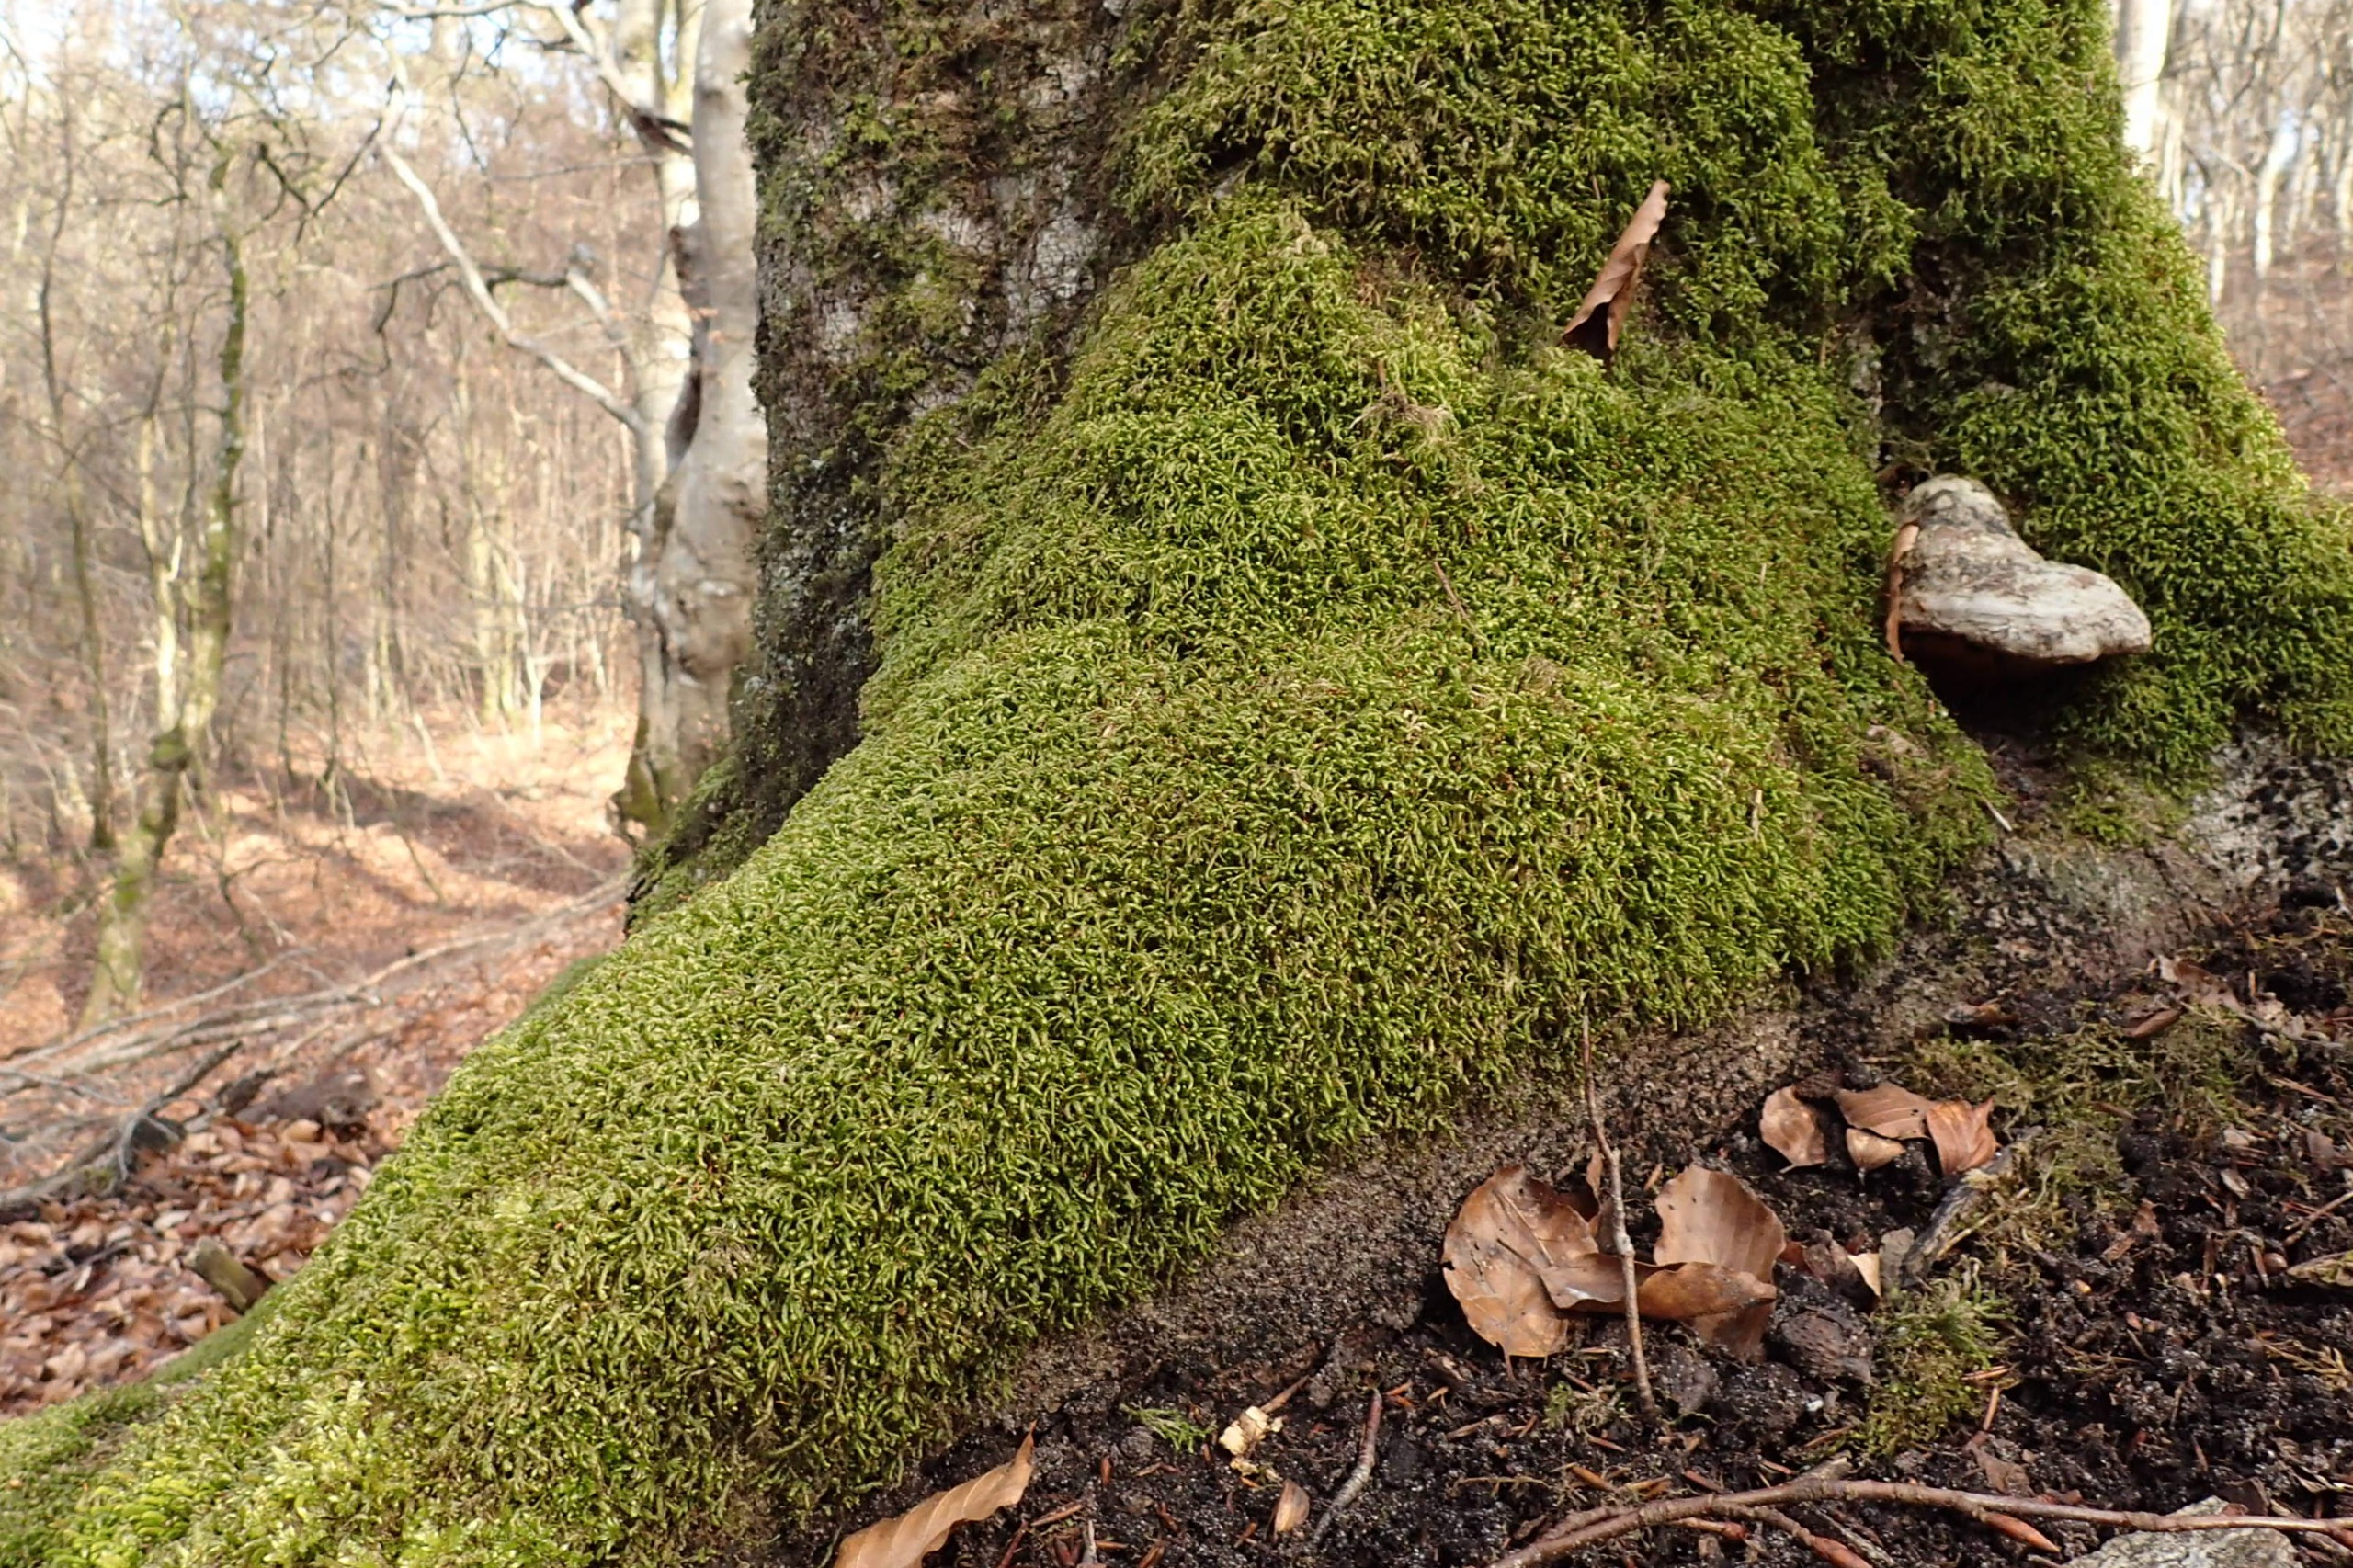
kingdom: Plantae
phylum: Bryophyta
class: Bryopsida
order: Hypnales
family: Neckeraceae
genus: Homalia
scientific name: Homalia trichomanoides
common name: Skov-tungemos
